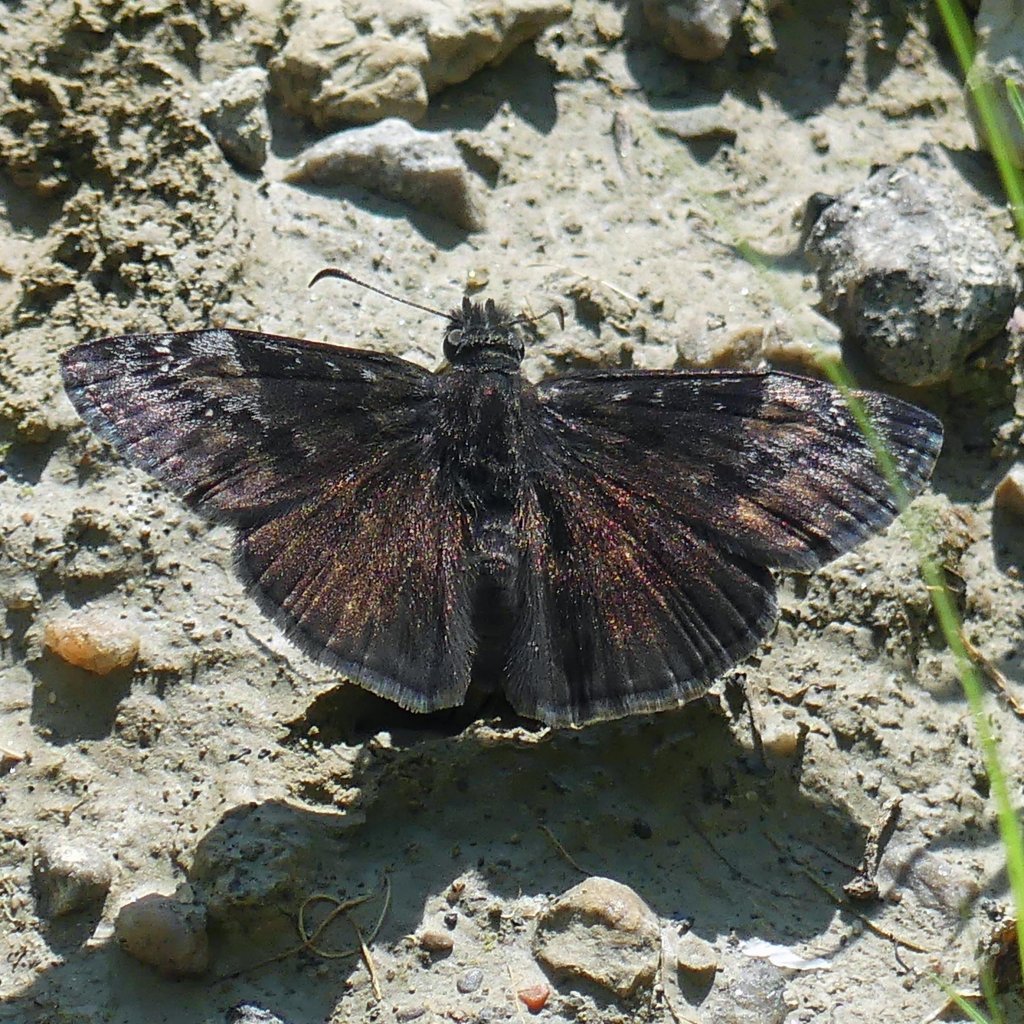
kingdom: Animalia
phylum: Arthropoda
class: Insecta
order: Lepidoptera
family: Hesperiidae
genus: Gesta
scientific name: Gesta
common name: Wild Indigo Duskywing
